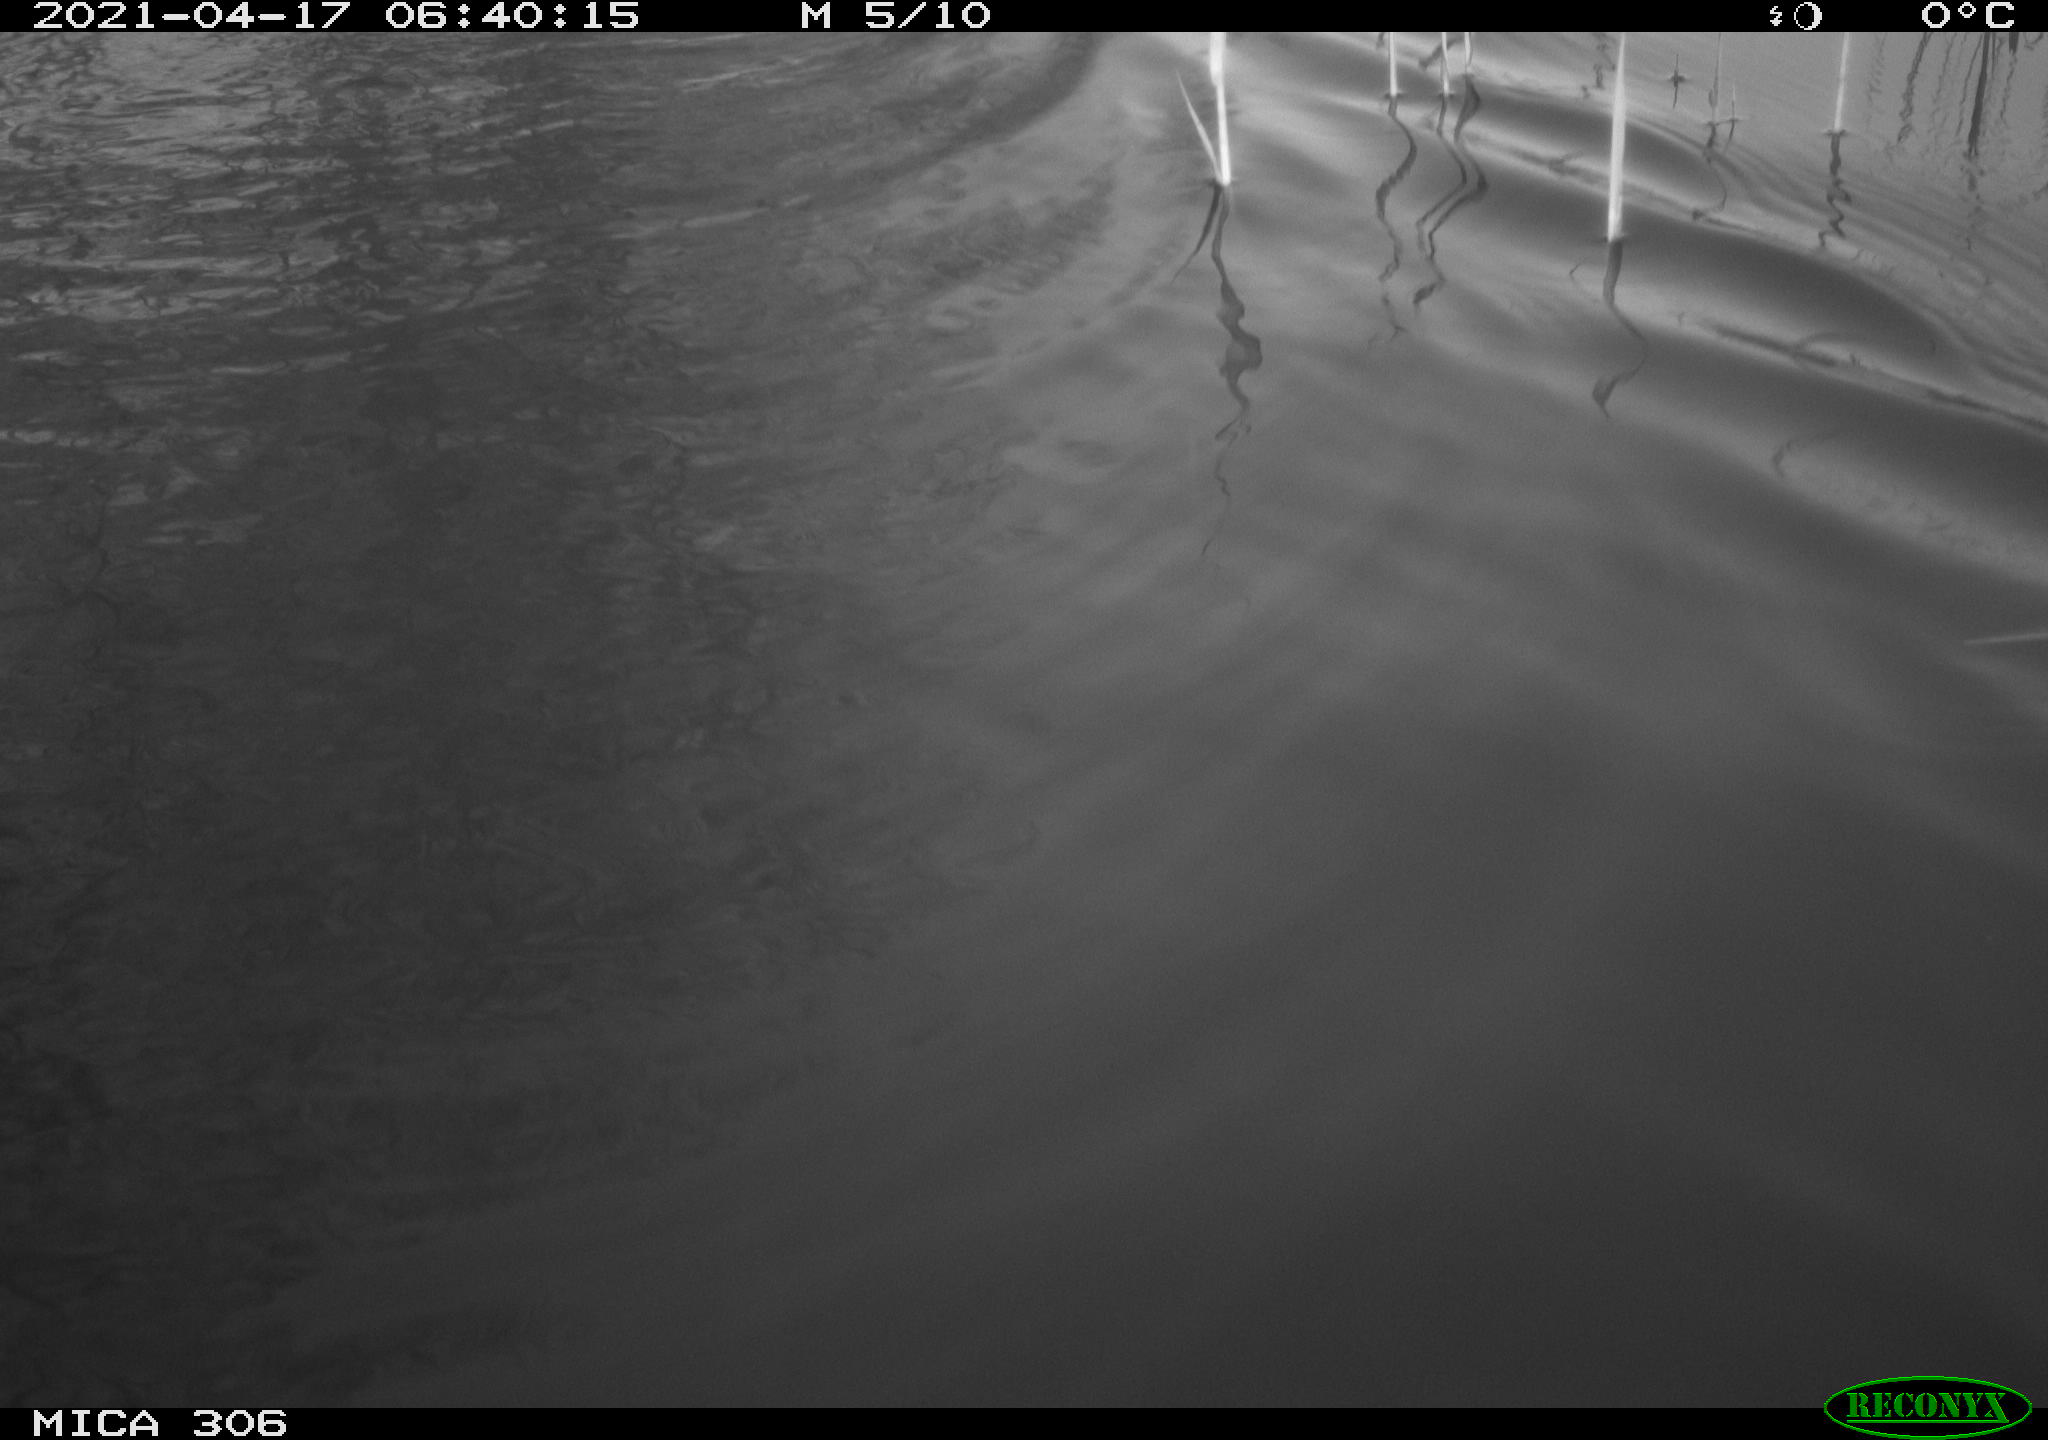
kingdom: Animalia
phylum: Chordata
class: Mammalia
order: Rodentia
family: Cricetidae
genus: Ondatra
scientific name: Ondatra zibethicus
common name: Muskrat
